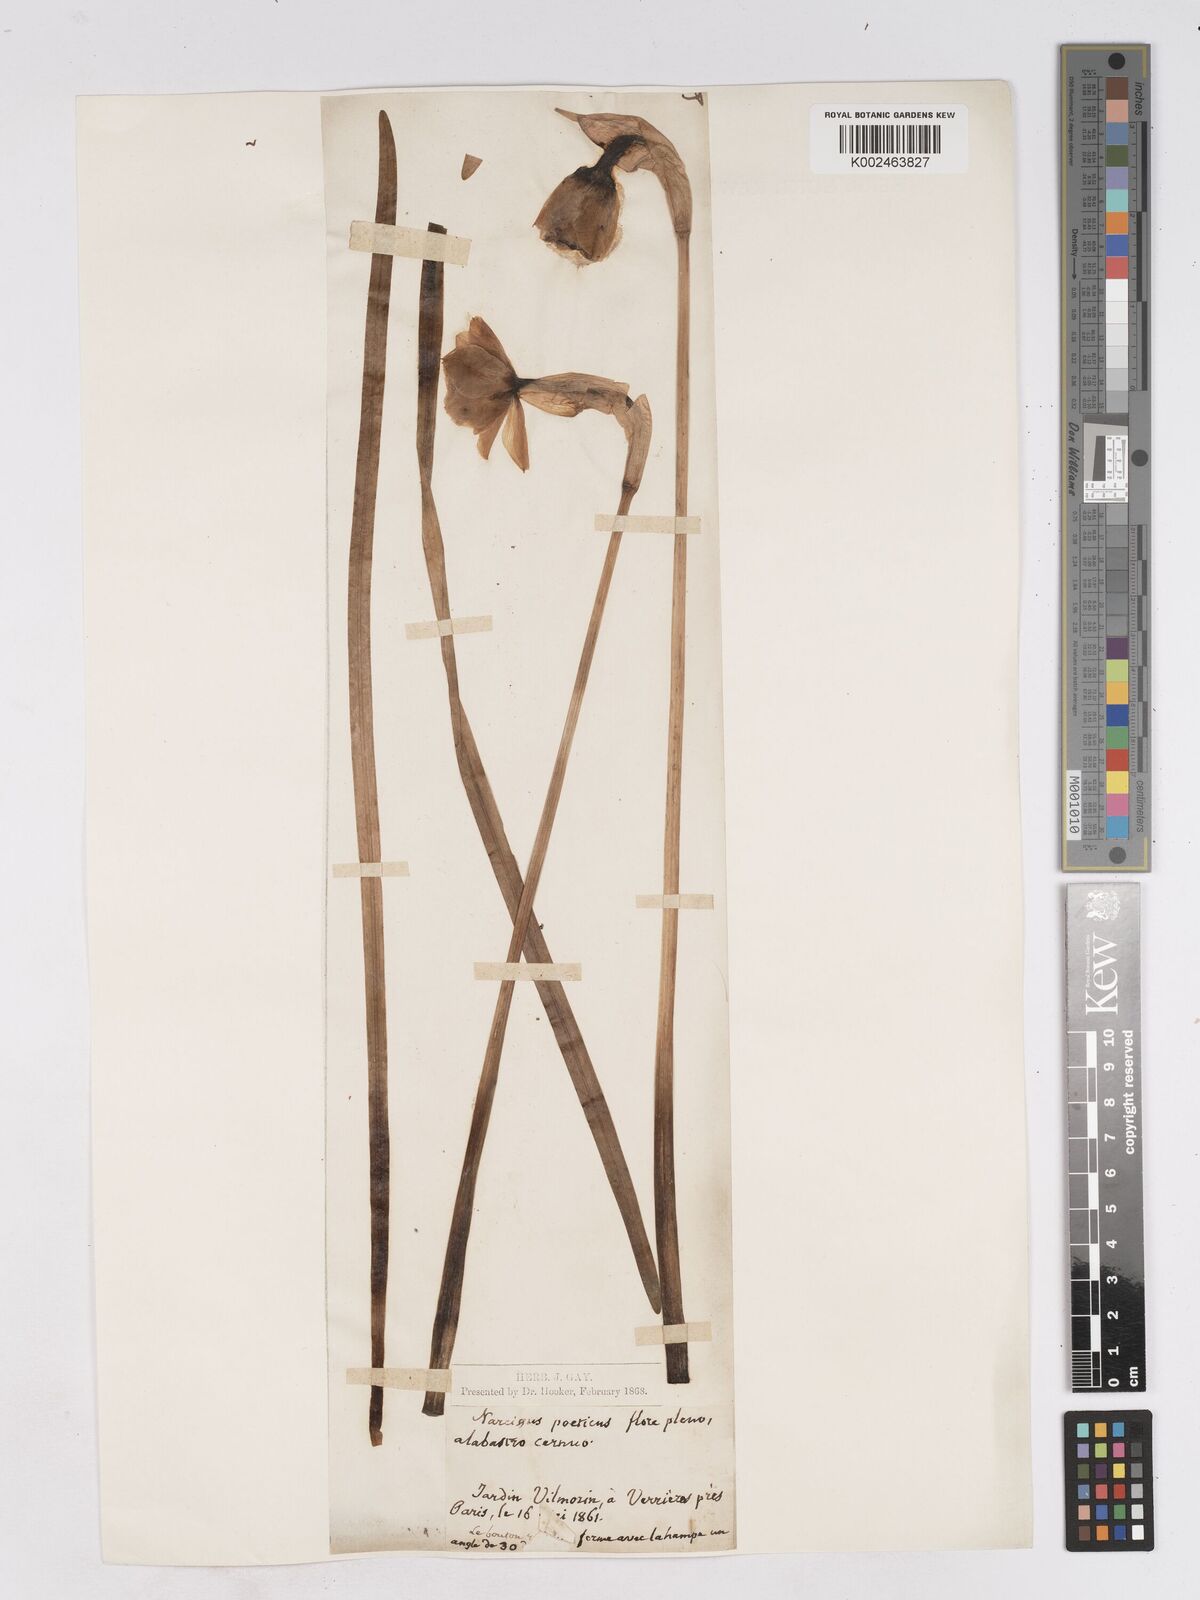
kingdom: Plantae
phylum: Tracheophyta
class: Liliopsida
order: Asparagales
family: Amaryllidaceae
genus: Narcissus
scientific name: Narcissus
